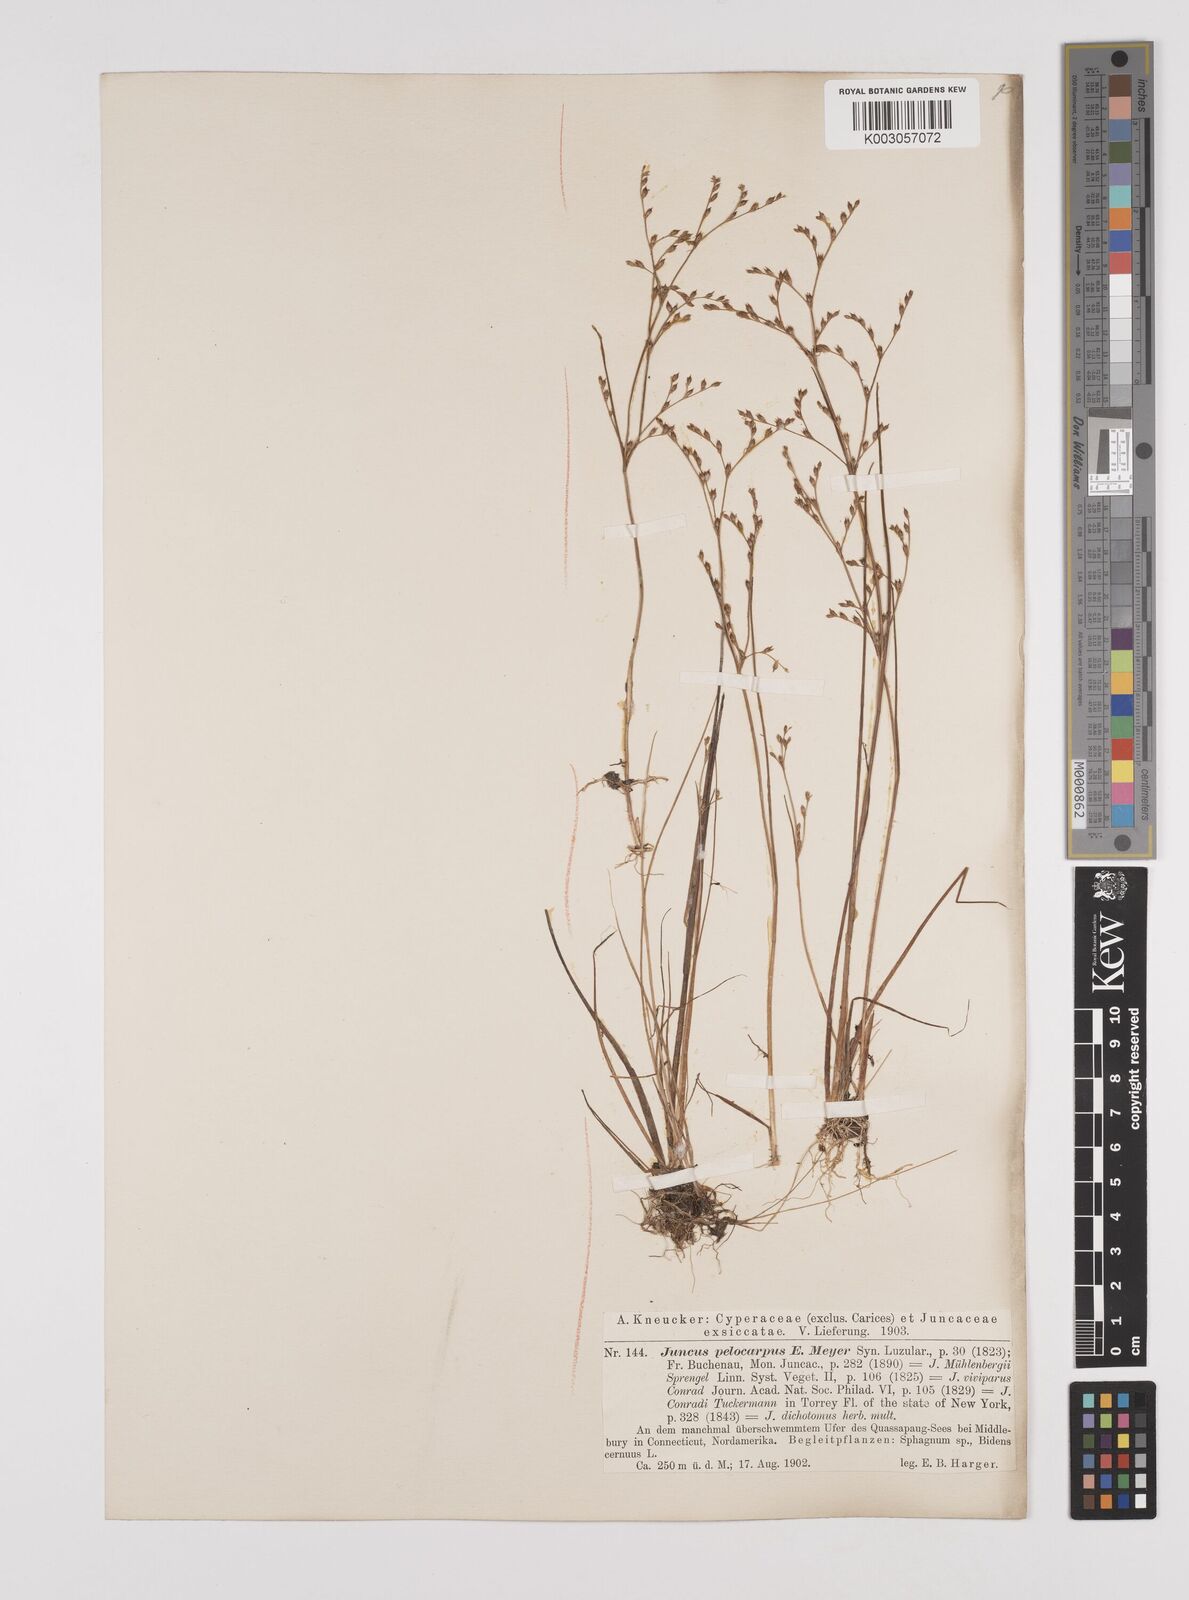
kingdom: Plantae
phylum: Tracheophyta
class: Liliopsida
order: Poales
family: Juncaceae
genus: Juncus
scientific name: Juncus pelocarpus
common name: Brown-fruited rush
